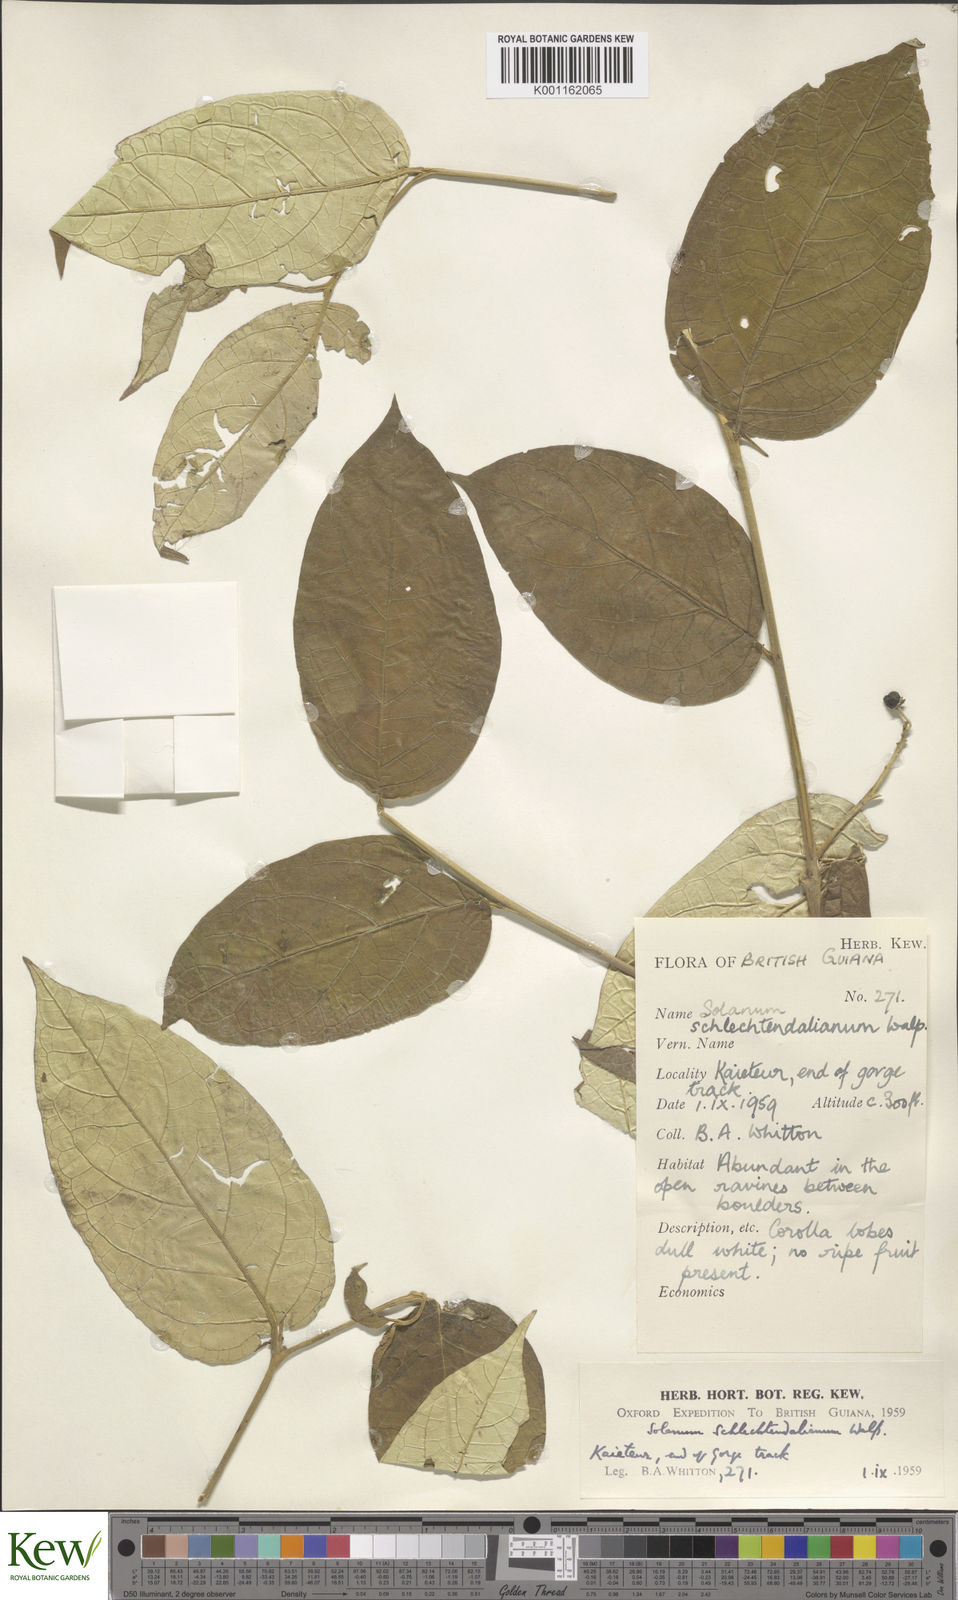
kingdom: Plantae
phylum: Tracheophyta
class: Magnoliopsida
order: Solanales
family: Solanaceae
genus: Solanum
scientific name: Solanum schlechtendalianum
